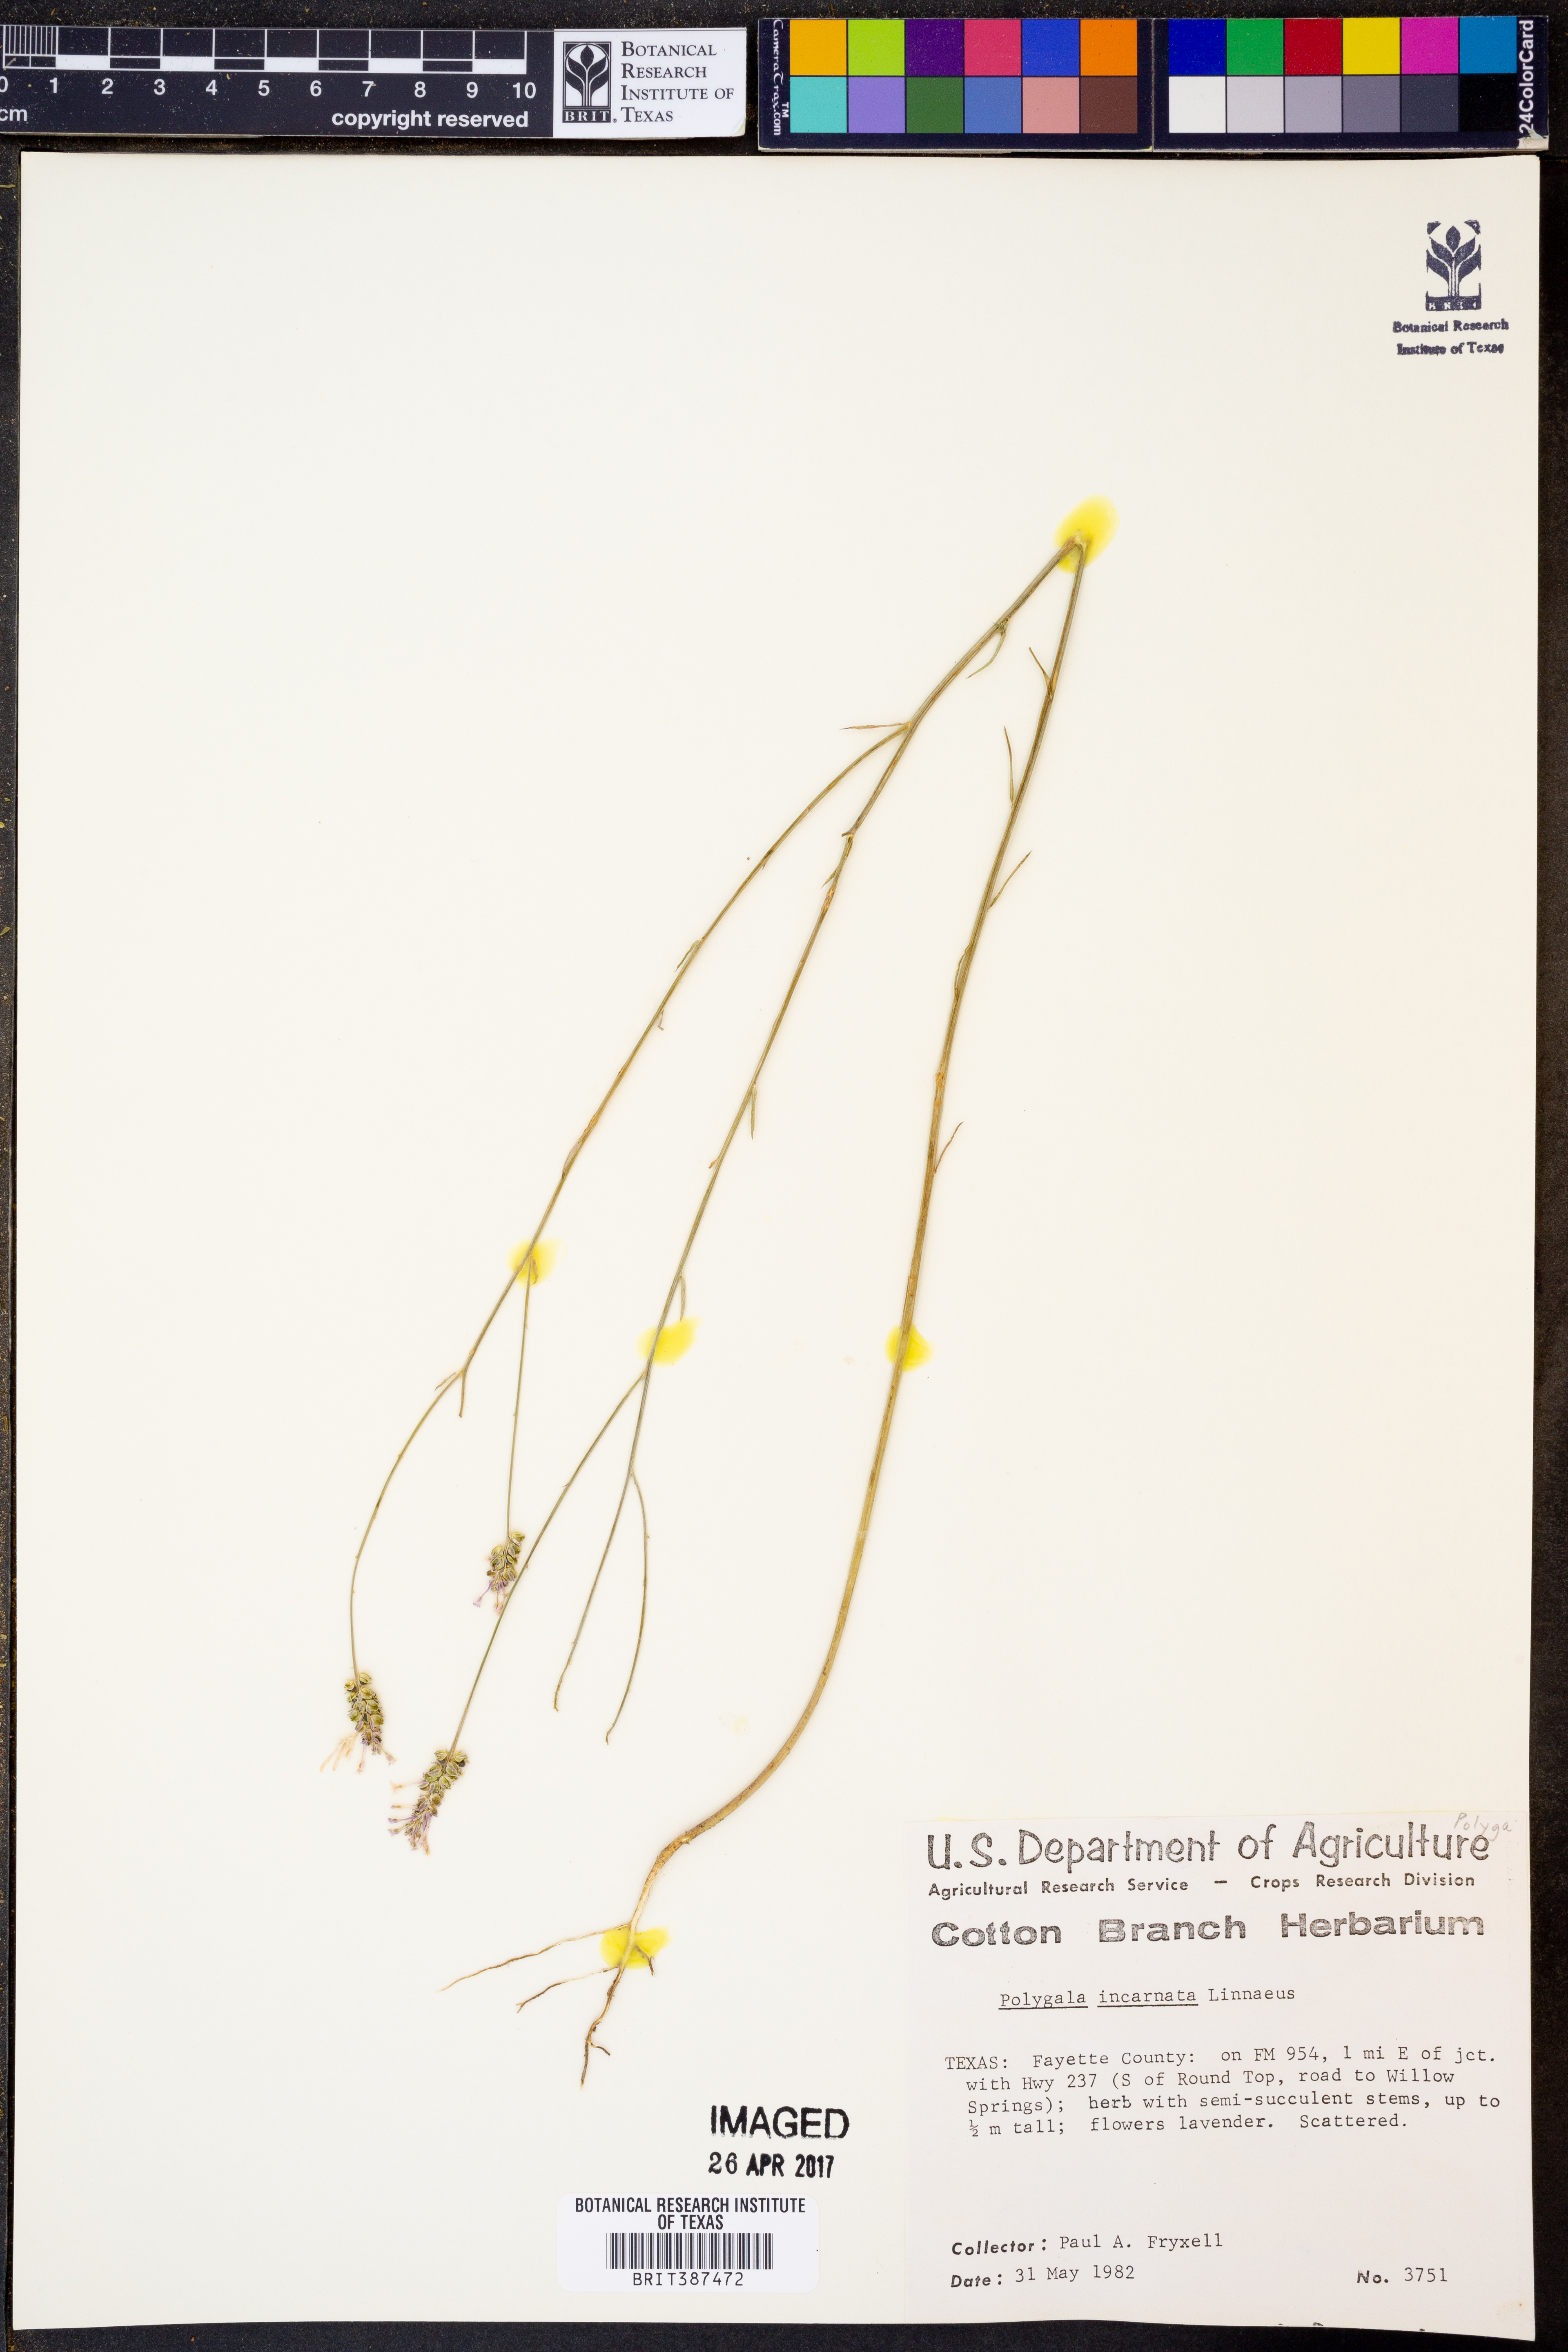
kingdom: Plantae
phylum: Tracheophyta
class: Magnoliopsida
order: Fabales
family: Polygalaceae
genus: Polygala
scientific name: Polygala incarnata
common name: Pink milkwort
